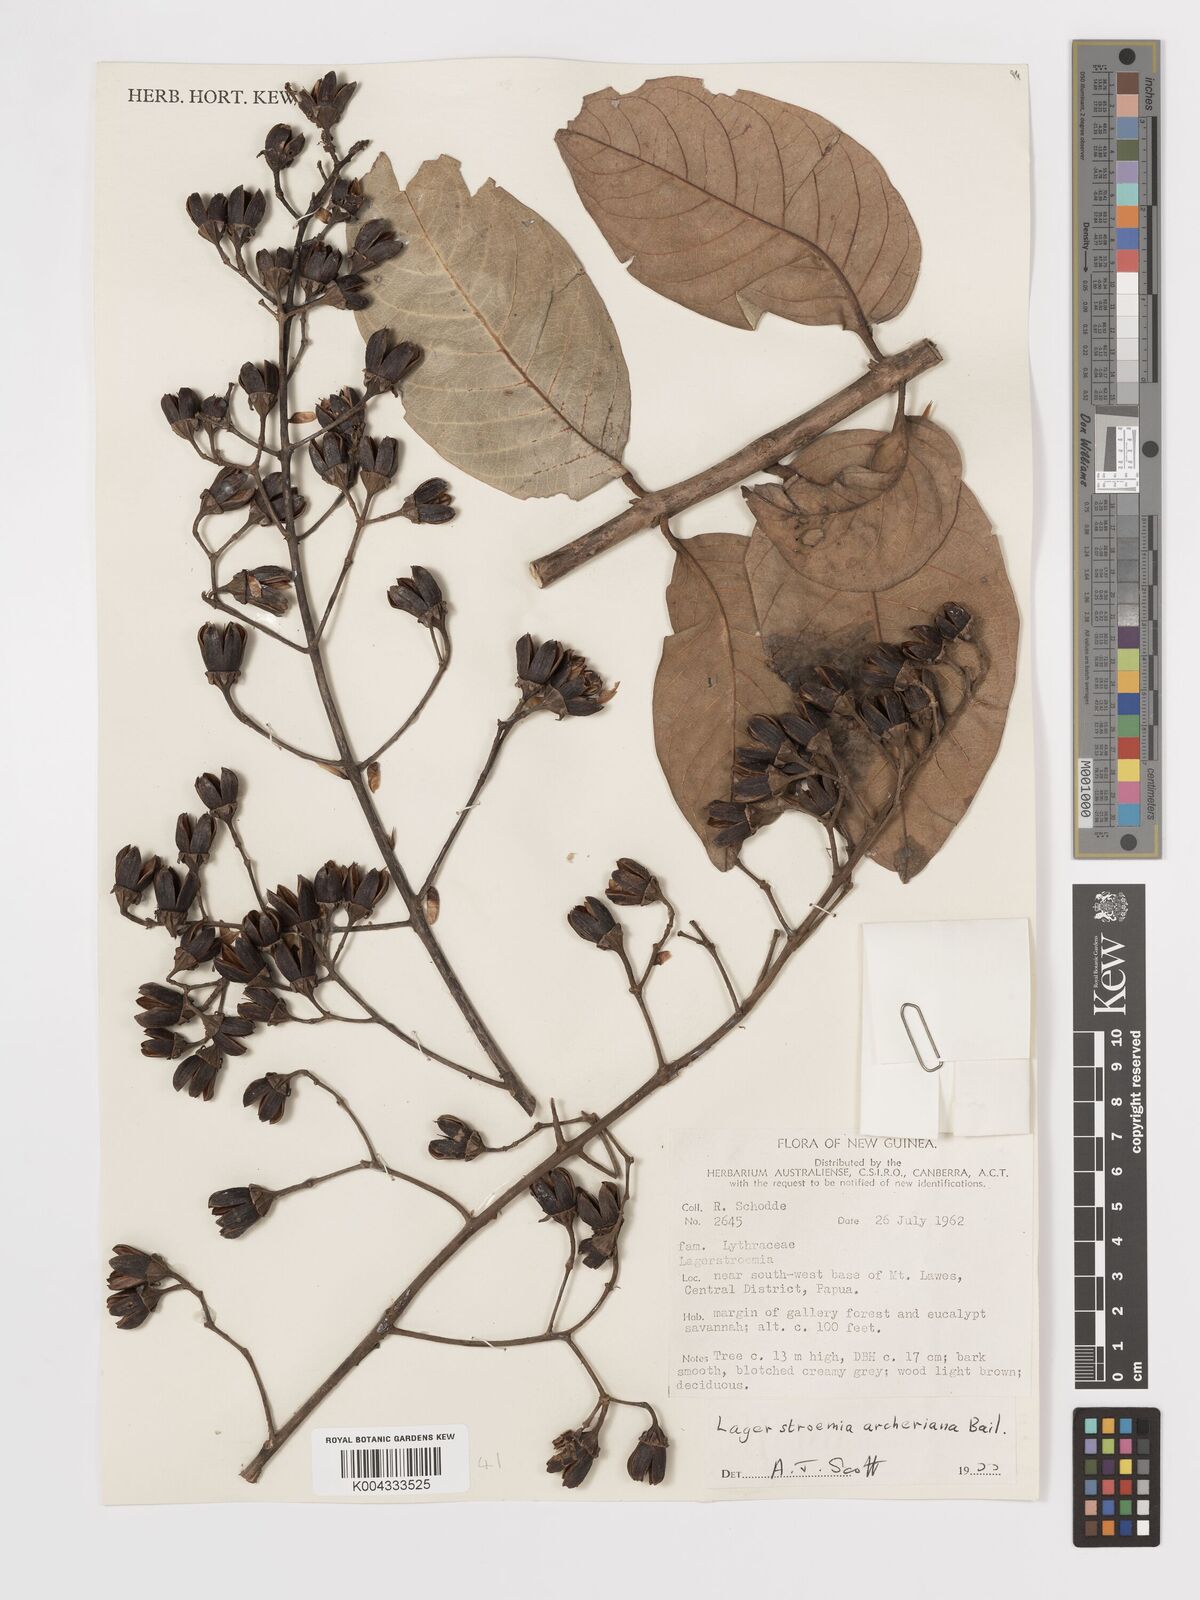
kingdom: Plantae
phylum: Tracheophyta
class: Magnoliopsida
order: Myrtales
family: Lythraceae
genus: Lagerstroemia
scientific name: Lagerstroemia engleriana
